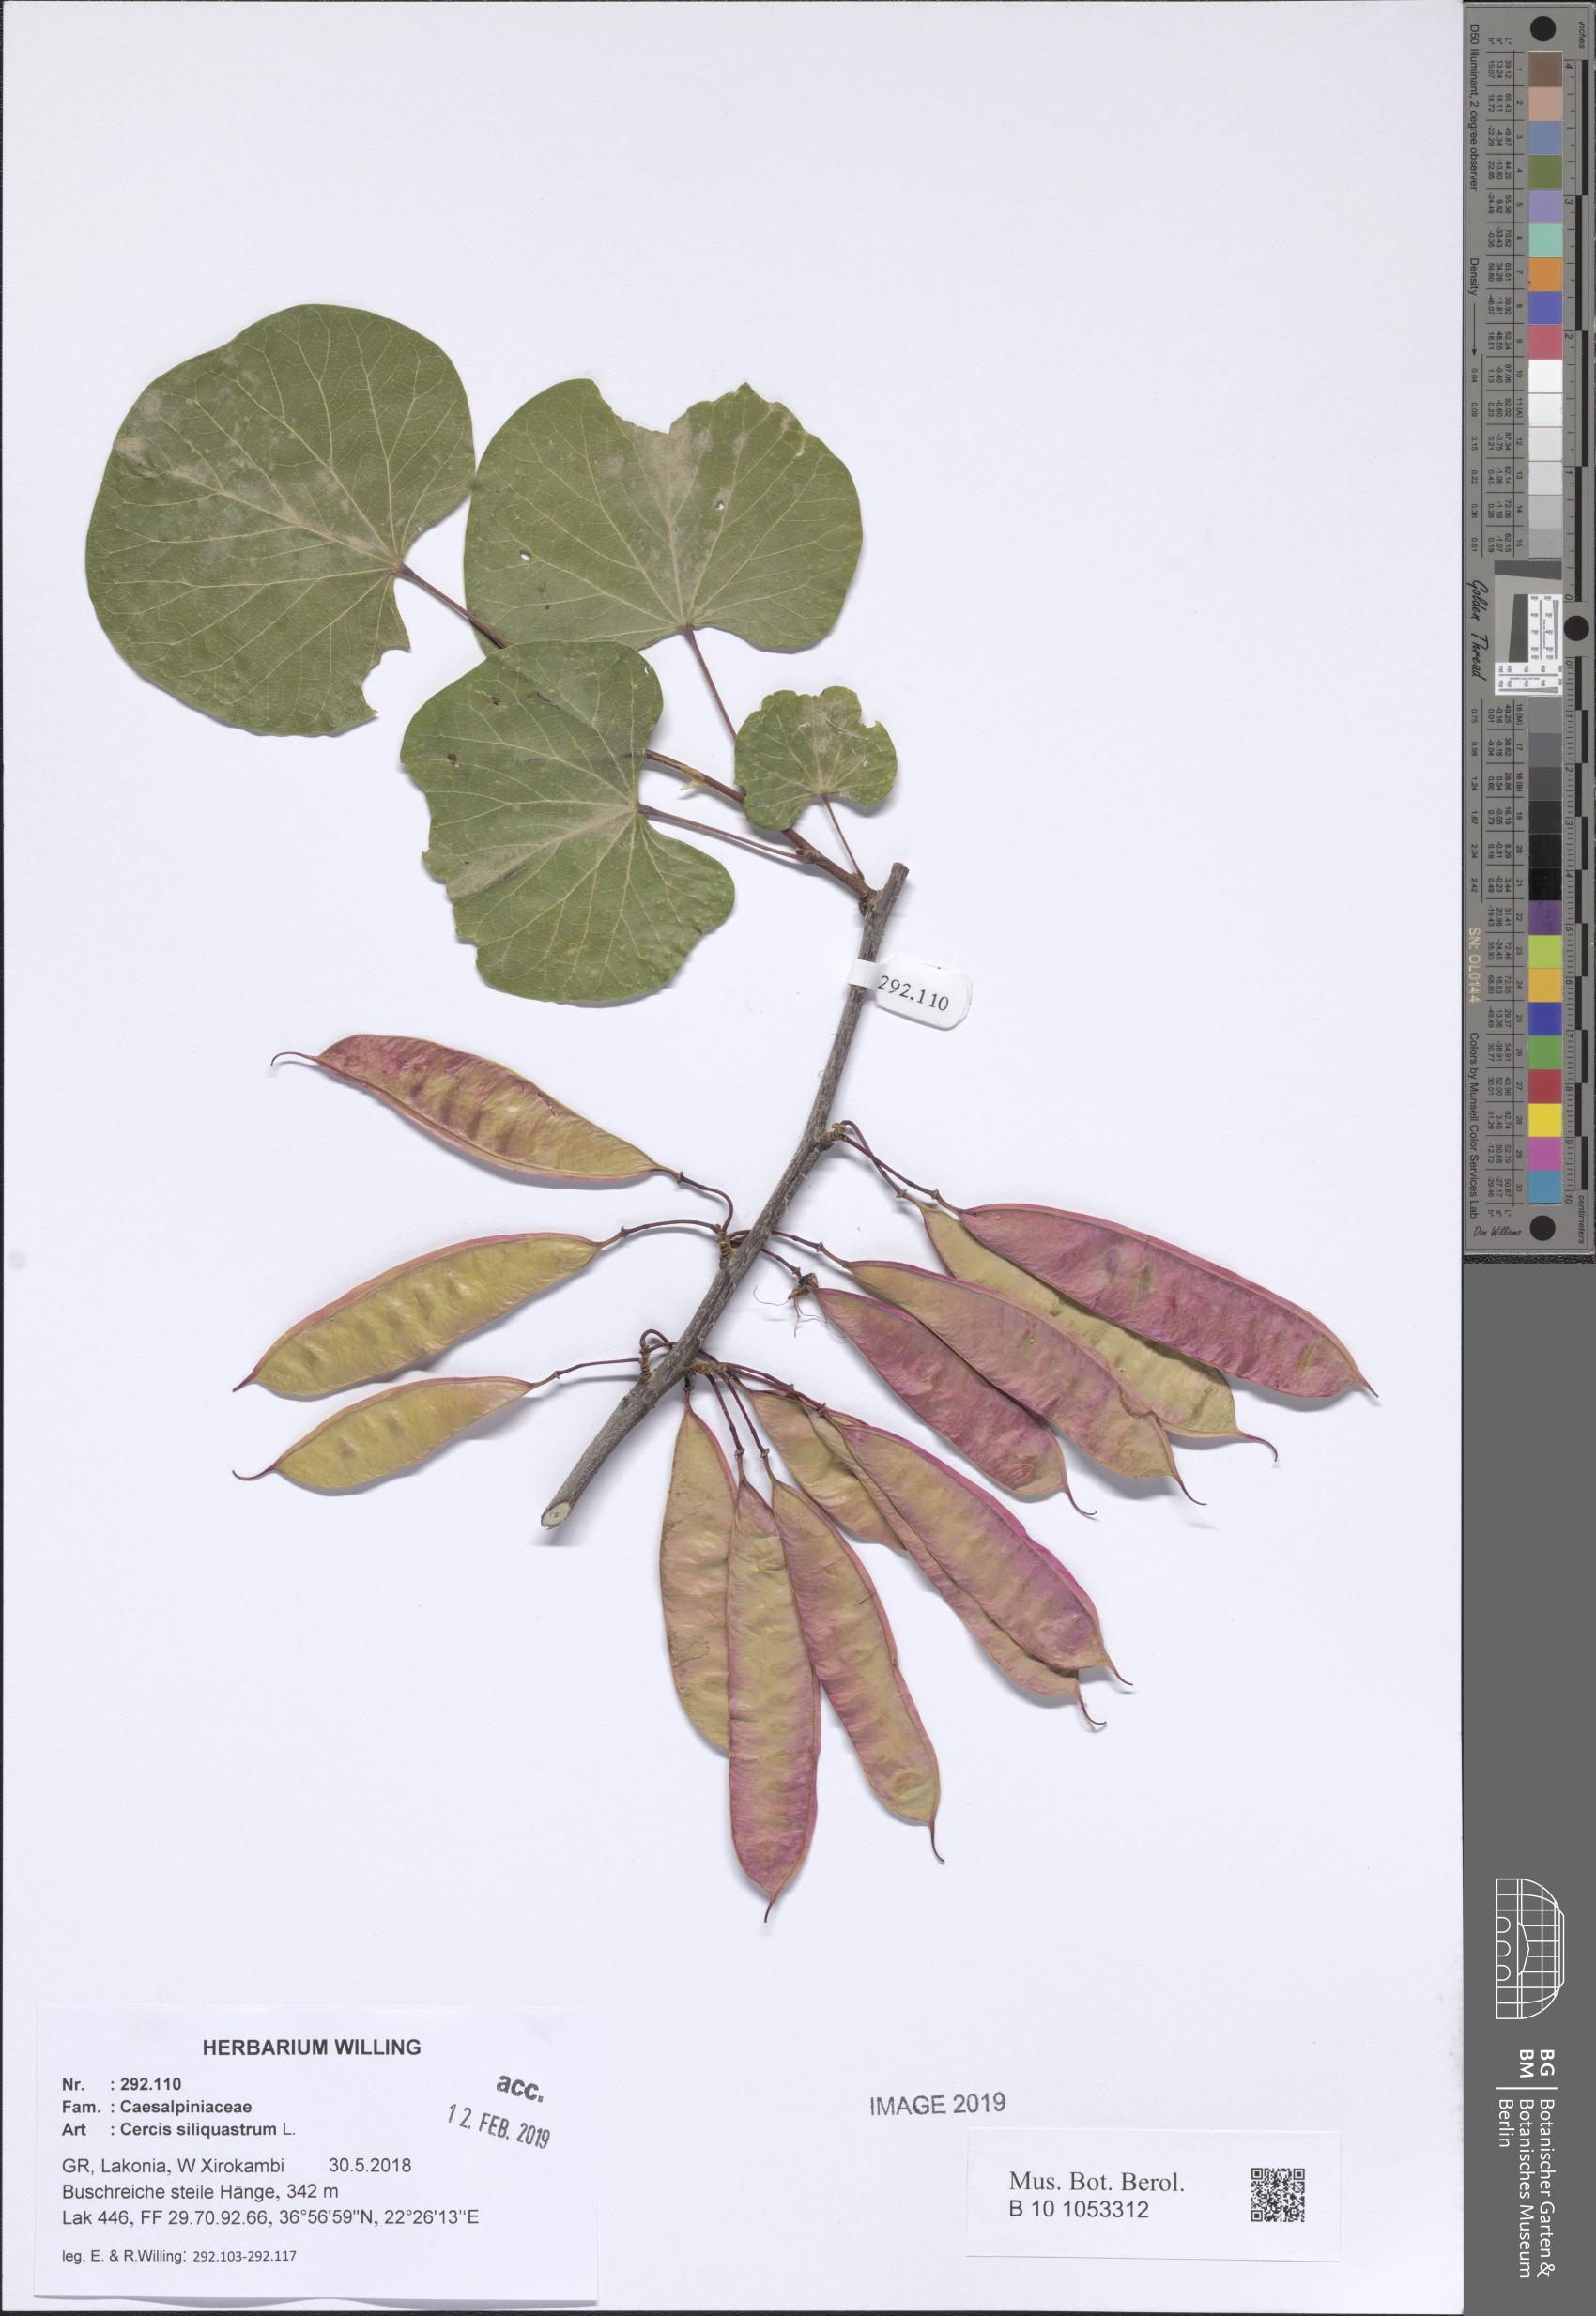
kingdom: Plantae
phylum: Tracheophyta
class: Magnoliopsida
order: Fabales
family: Fabaceae
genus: Cercis
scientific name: Cercis siliquastrum
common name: Judas tree
